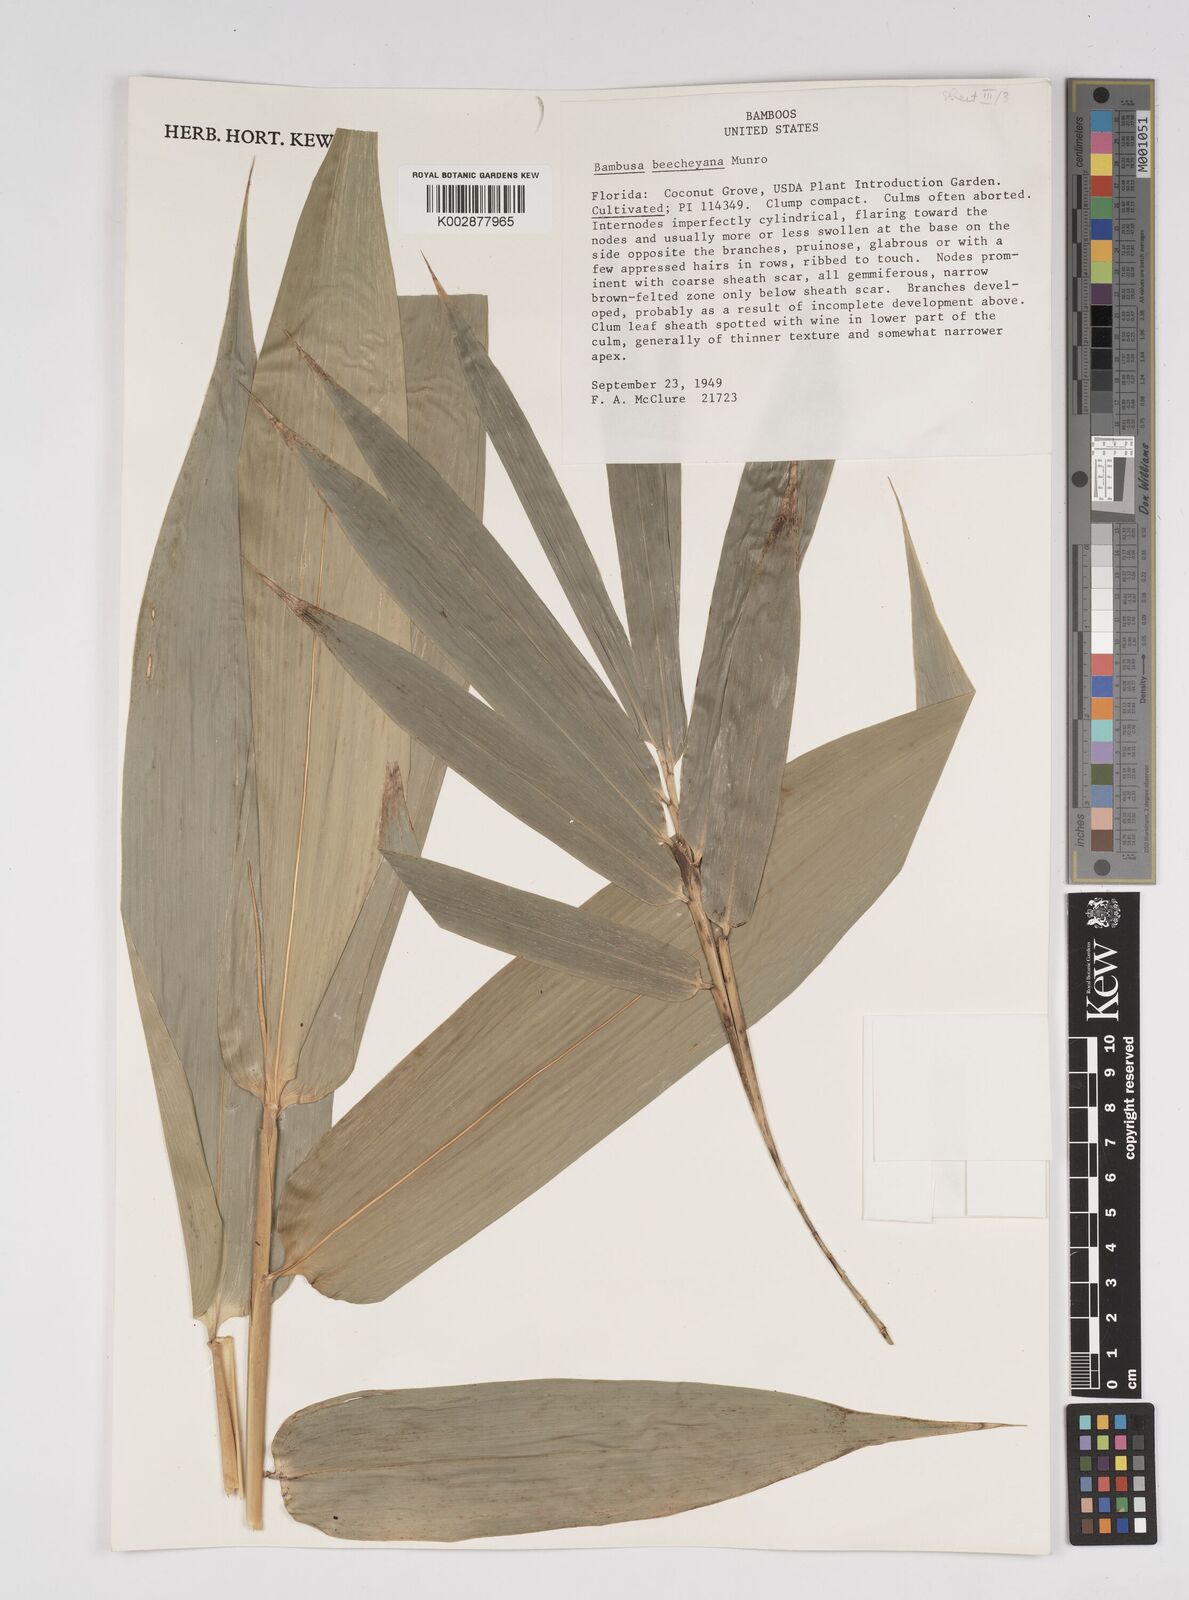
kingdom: Plantae
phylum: Tracheophyta
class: Liliopsida
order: Poales
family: Poaceae
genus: Bambusa
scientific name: Bambusa beecheyana
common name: Beechey's bamboo
